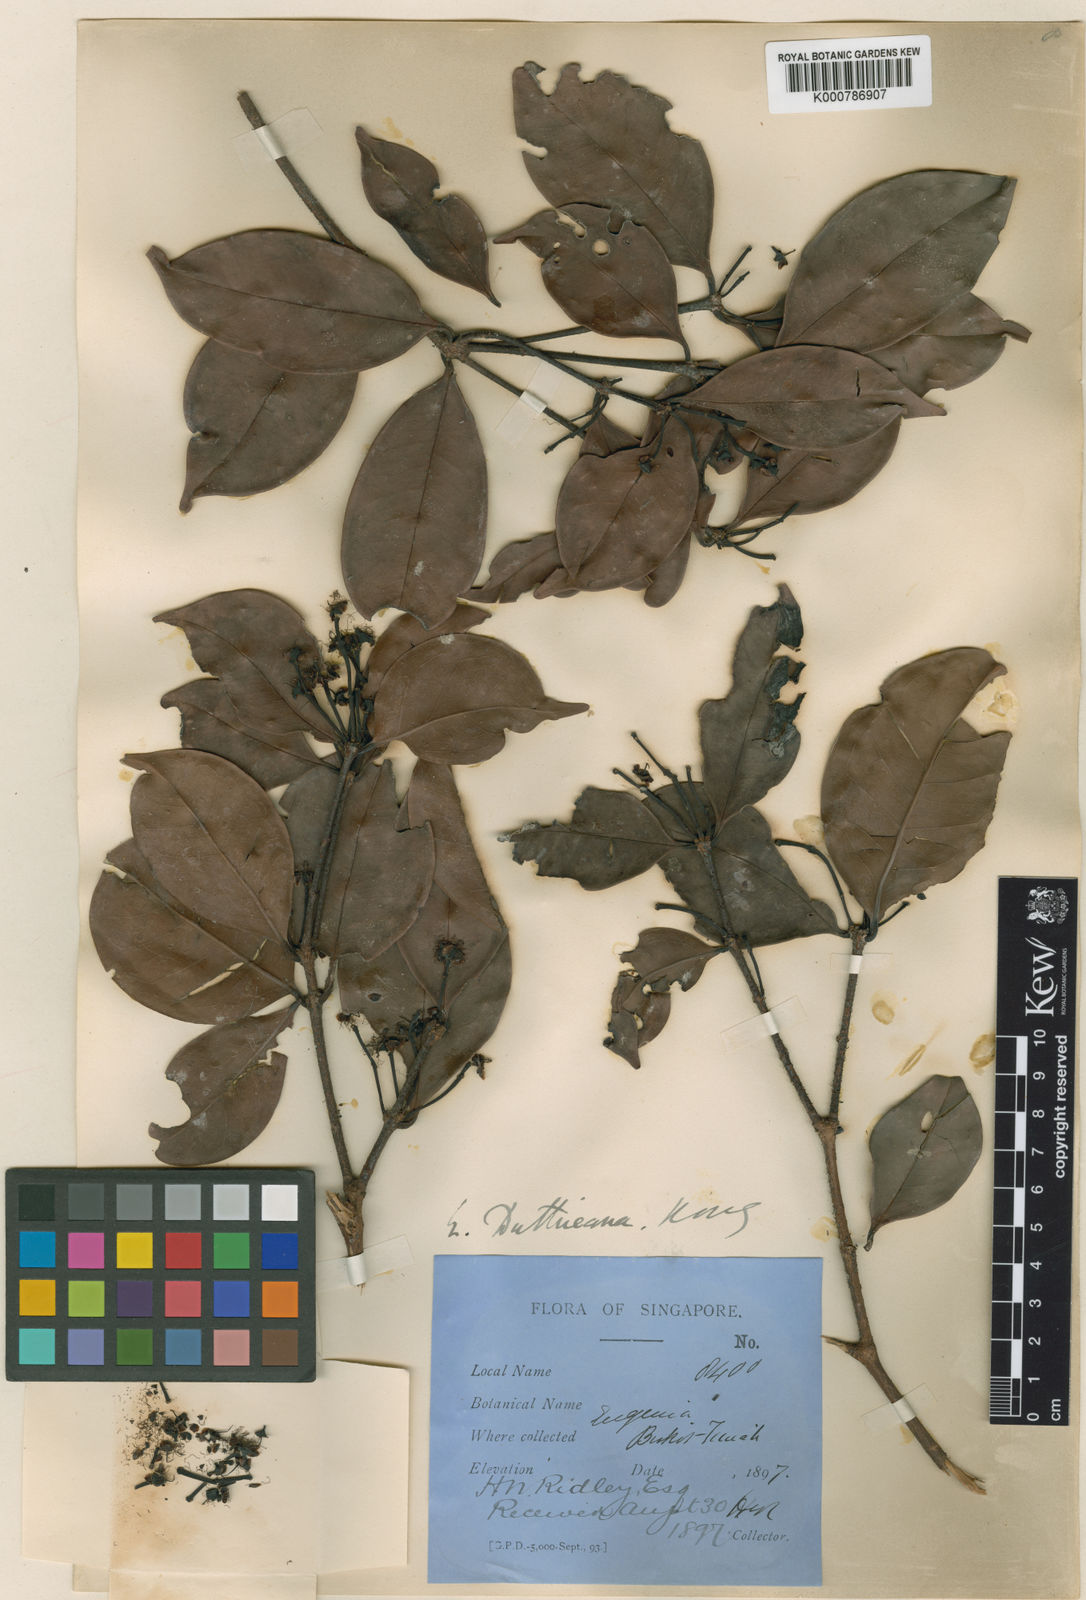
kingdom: Plantae
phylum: Tracheophyta
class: Magnoliopsida
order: Myrtales
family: Myrtaceae
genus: Syzygium
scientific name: Syzygium duthieanum
